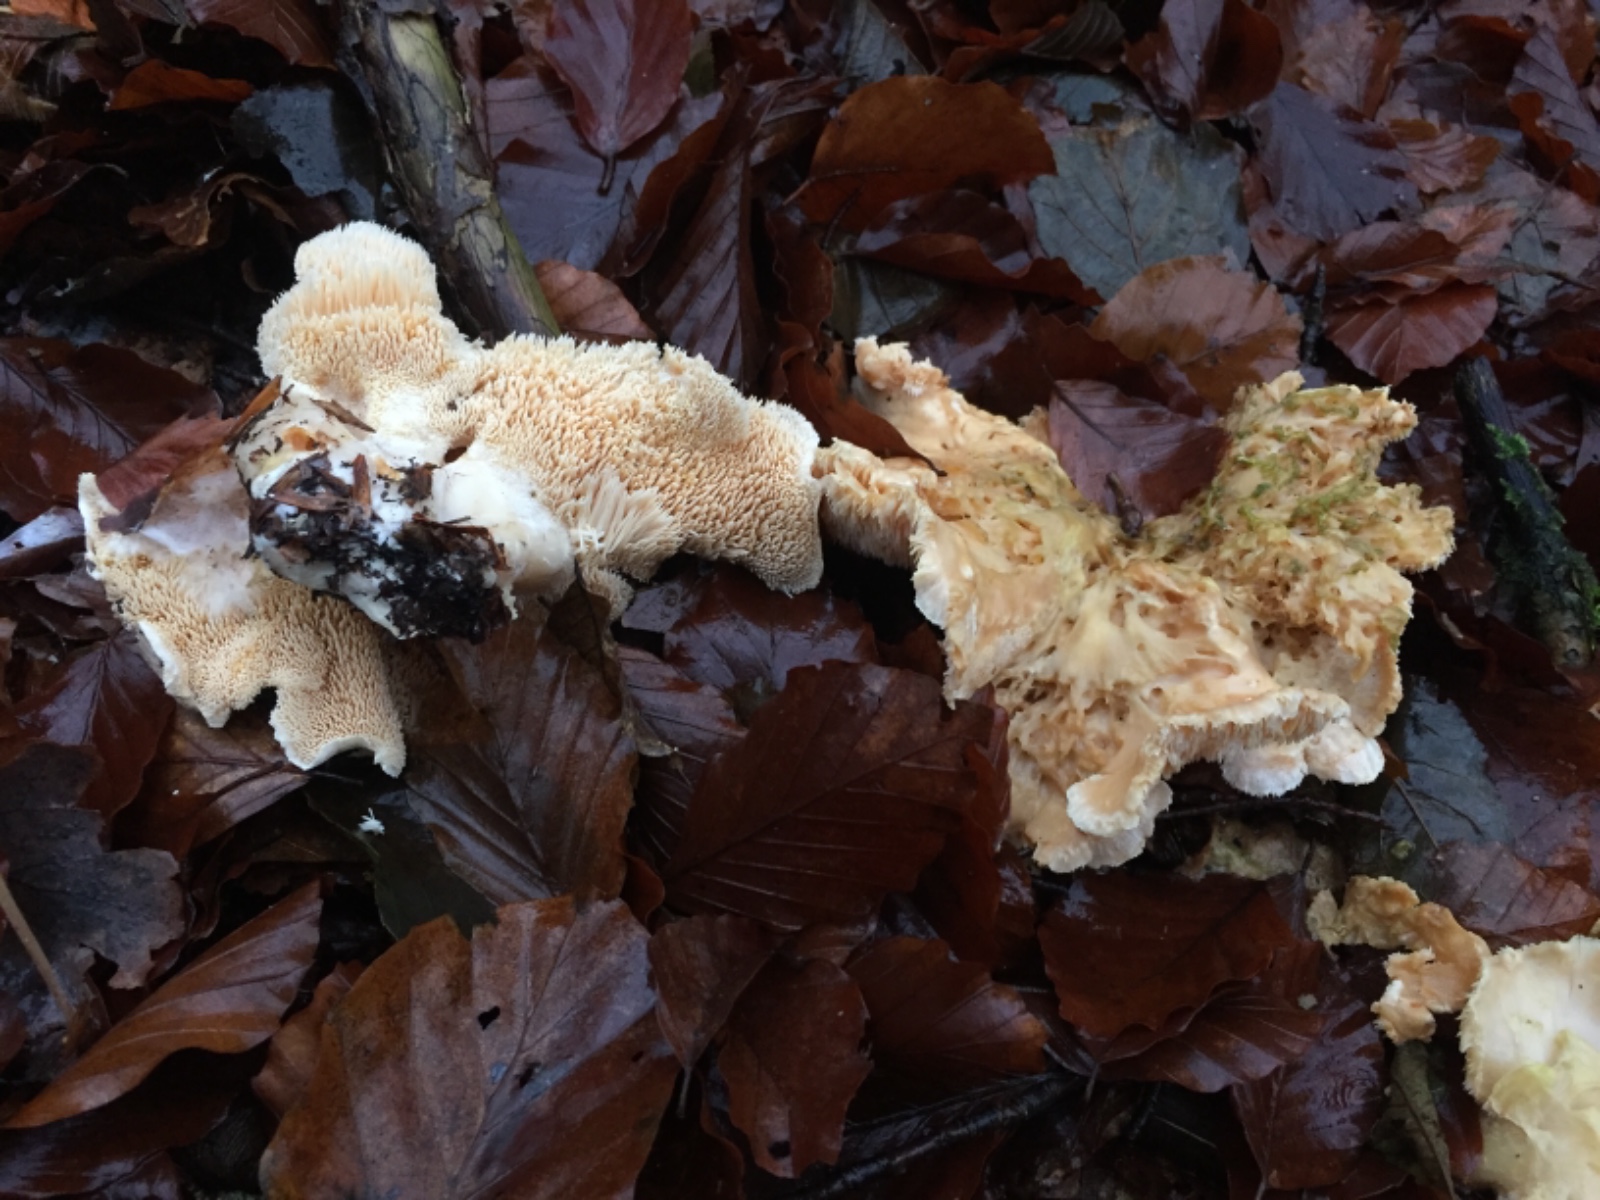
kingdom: Fungi
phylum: Basidiomycota
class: Agaricomycetes
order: Cantharellales
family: Hydnaceae
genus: Hydnum
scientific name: Hydnum repandum
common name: almindelig pigsvamp
